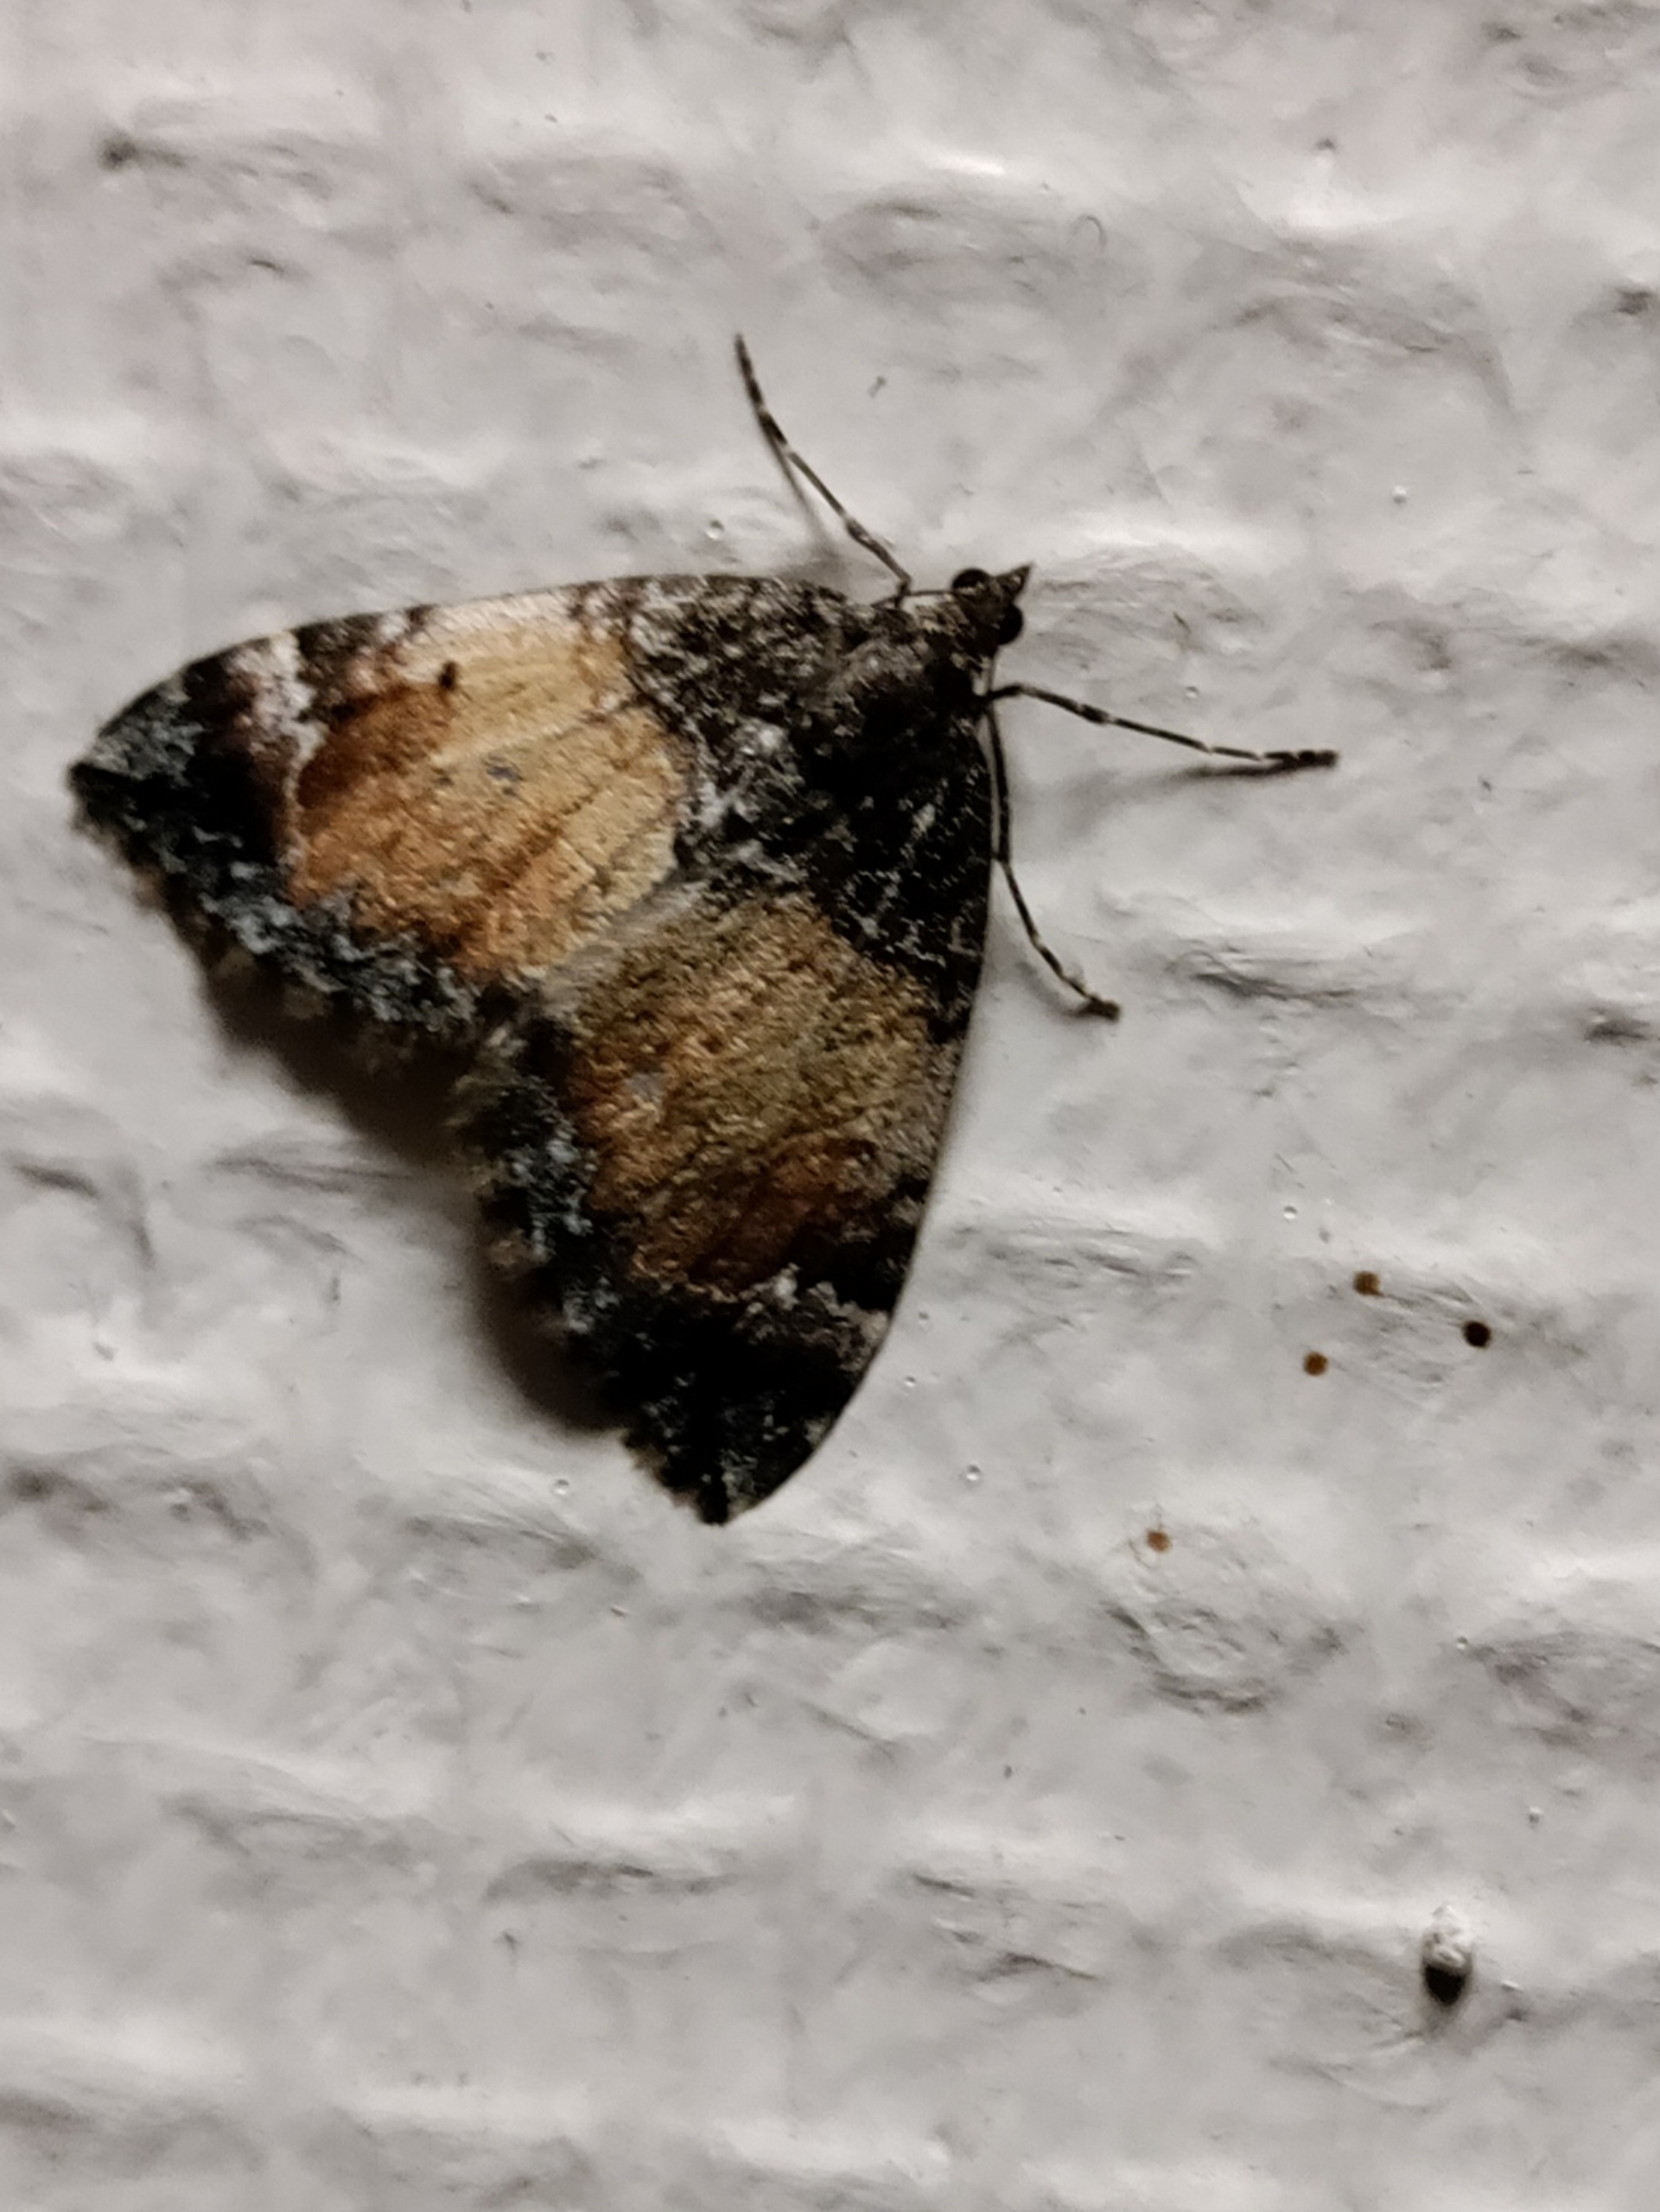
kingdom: Animalia
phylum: Arthropoda
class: Insecta
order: Lepidoptera
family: Geometridae
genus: Dysstroma
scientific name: Dysstroma truncata
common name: Jordbær-bladmåler
